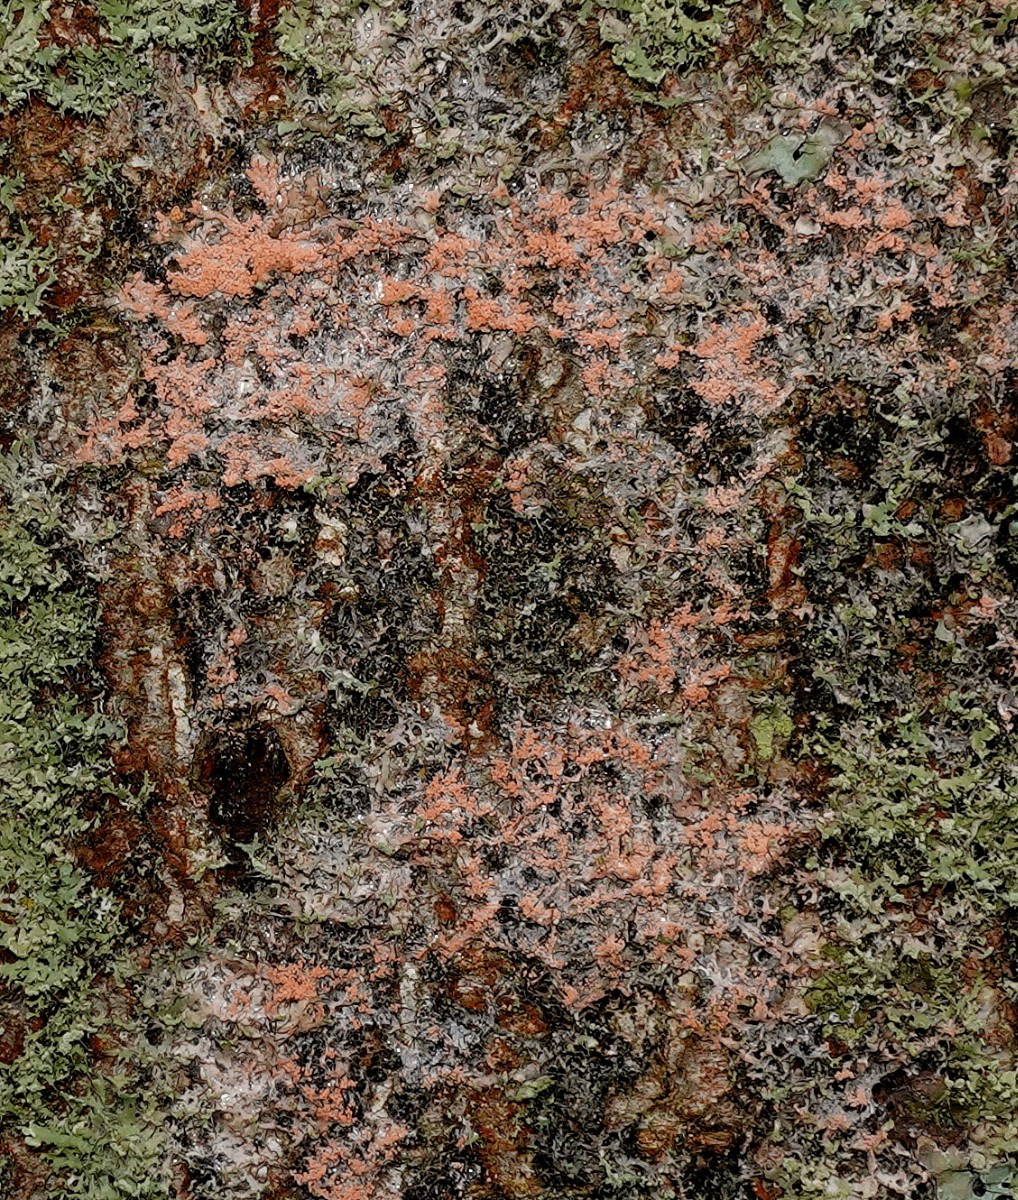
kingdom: Fungi
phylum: Basidiomycota
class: Agaricomycetes
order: Corticiales
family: Corticiaceae
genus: Erythricium
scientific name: Erythricium aurantiacum
